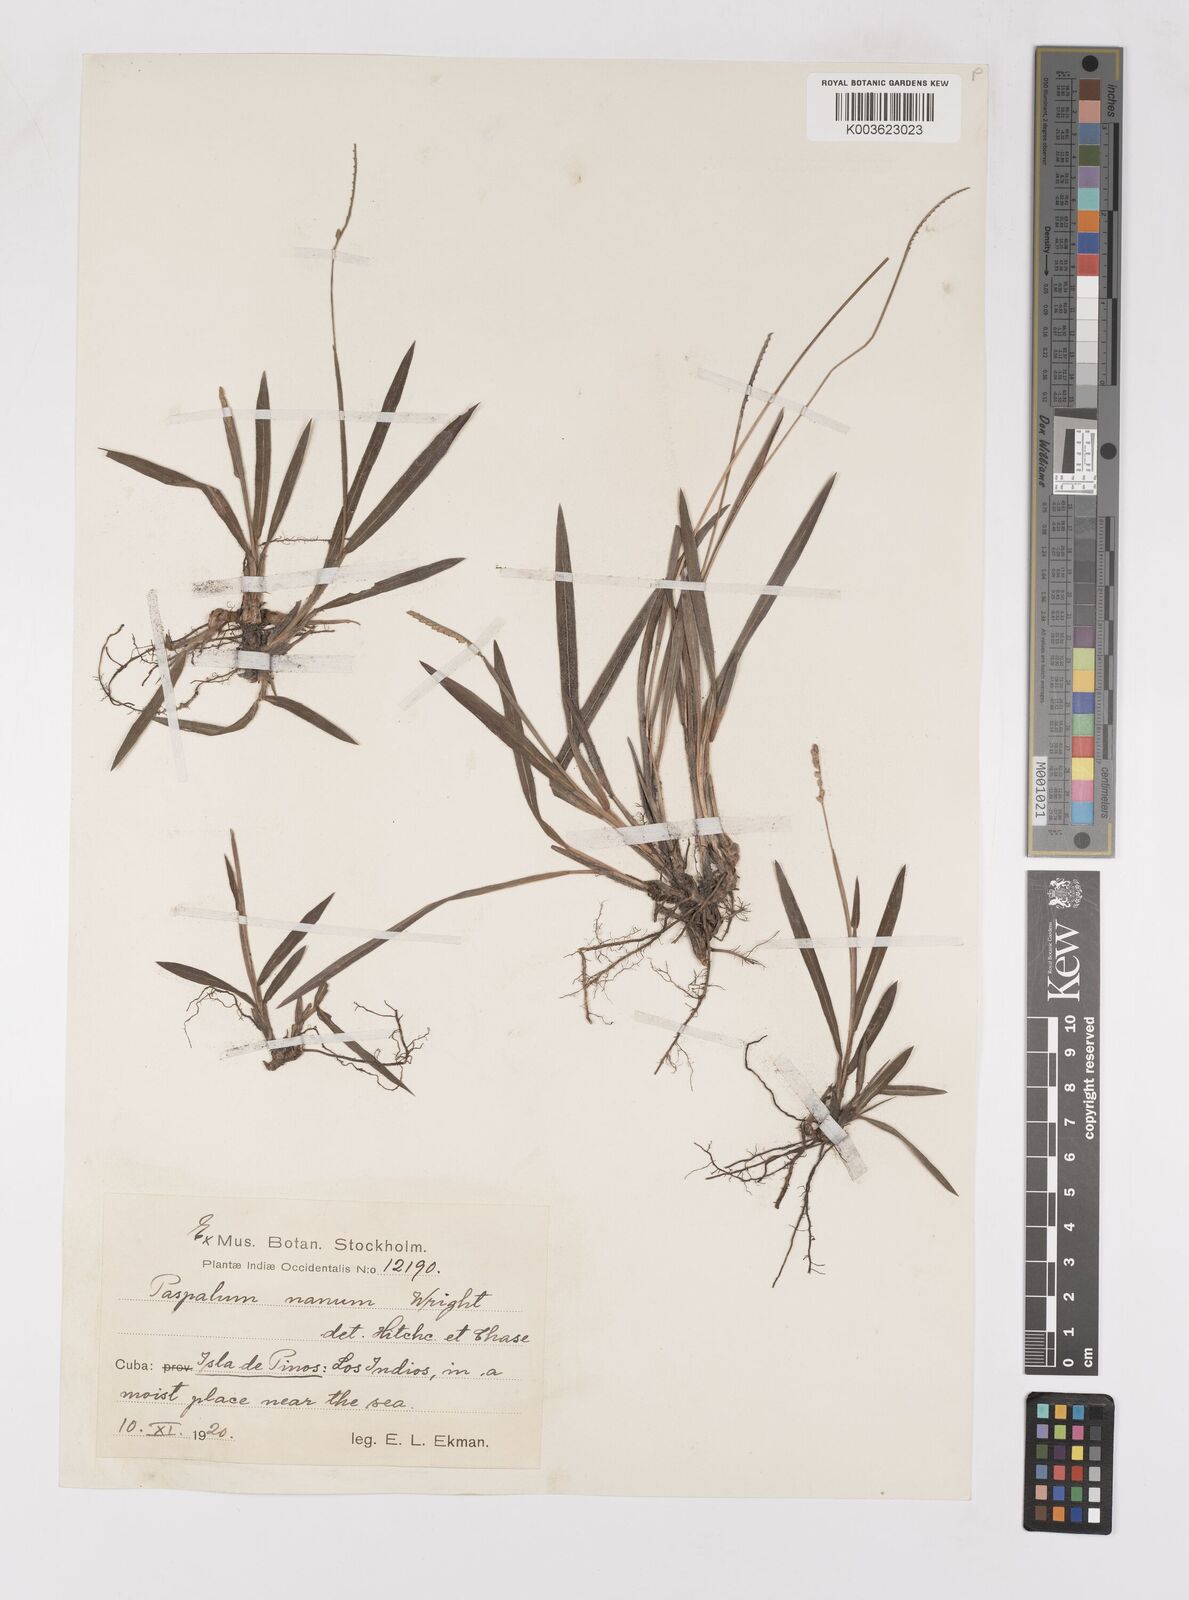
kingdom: Plantae
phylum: Tracheophyta
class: Liliopsida
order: Poales
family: Poaceae
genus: Paspalum
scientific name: Paspalum nanum
